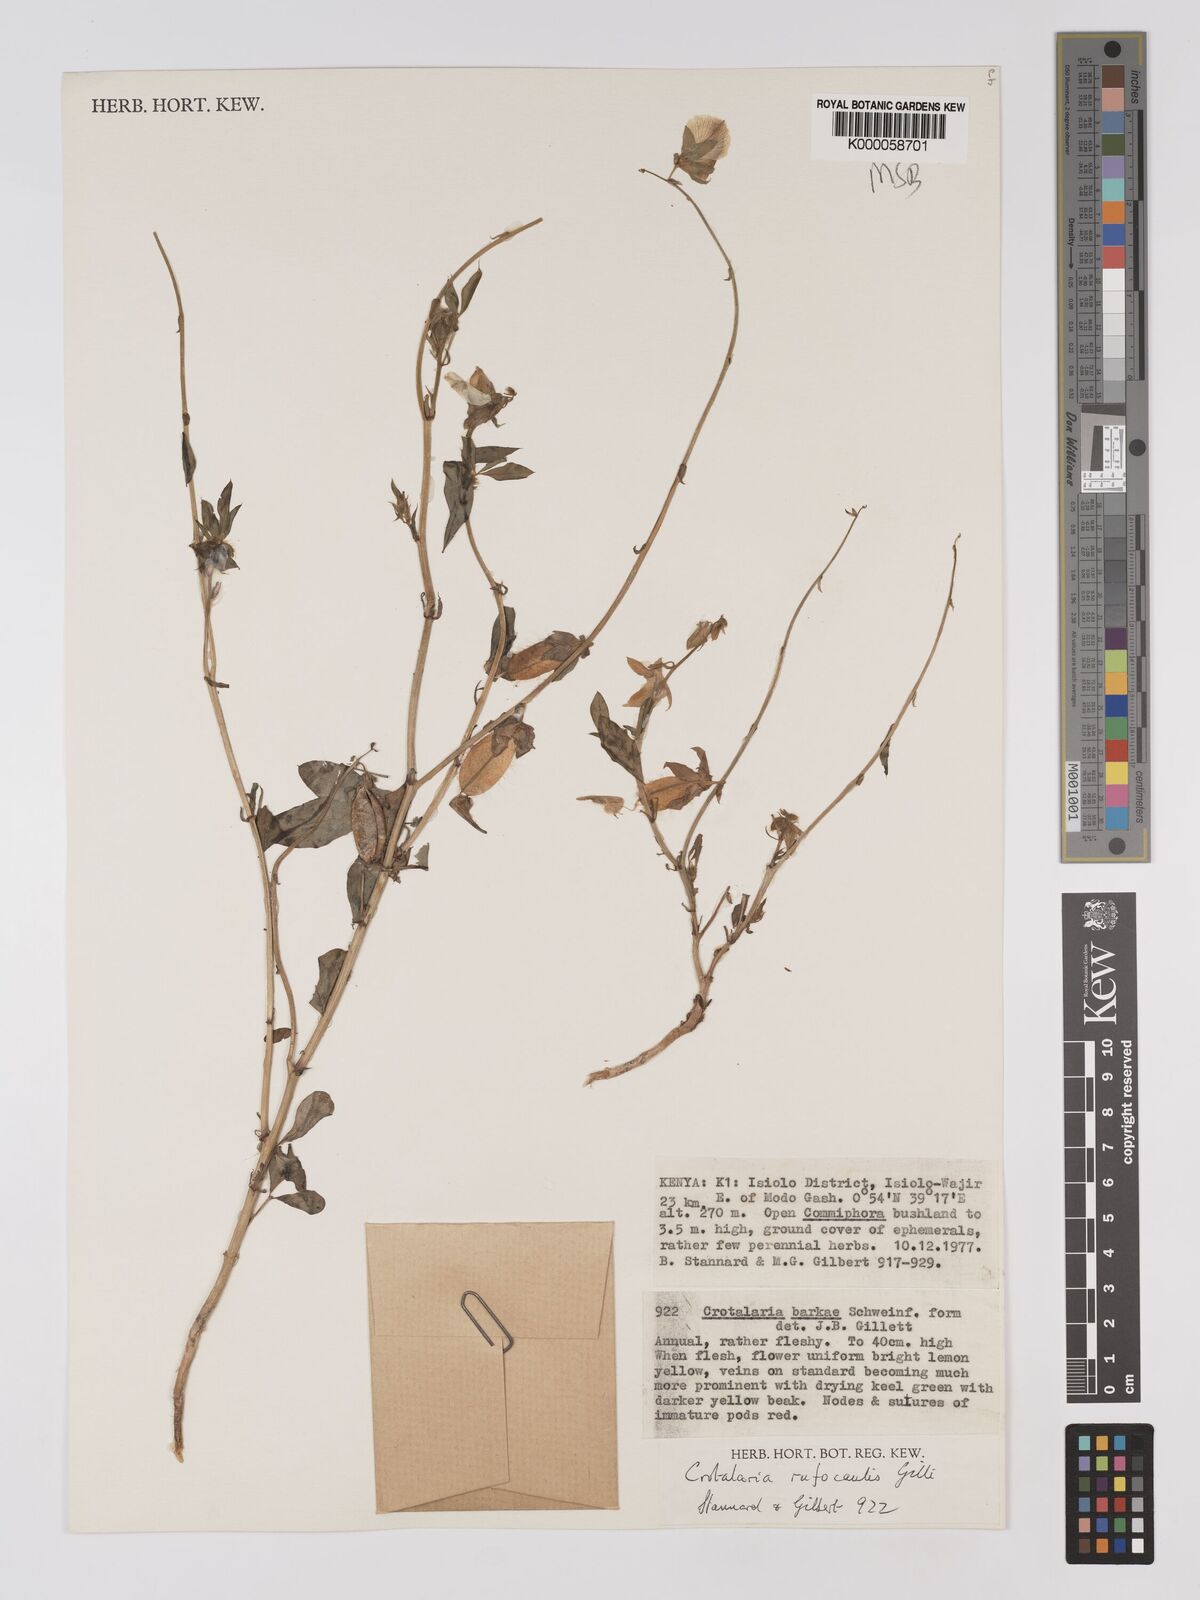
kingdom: Plantae
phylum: Tracheophyta
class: Magnoliopsida
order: Fabales
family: Fabaceae
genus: Crotalaria
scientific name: Crotalaria rufocaulis
